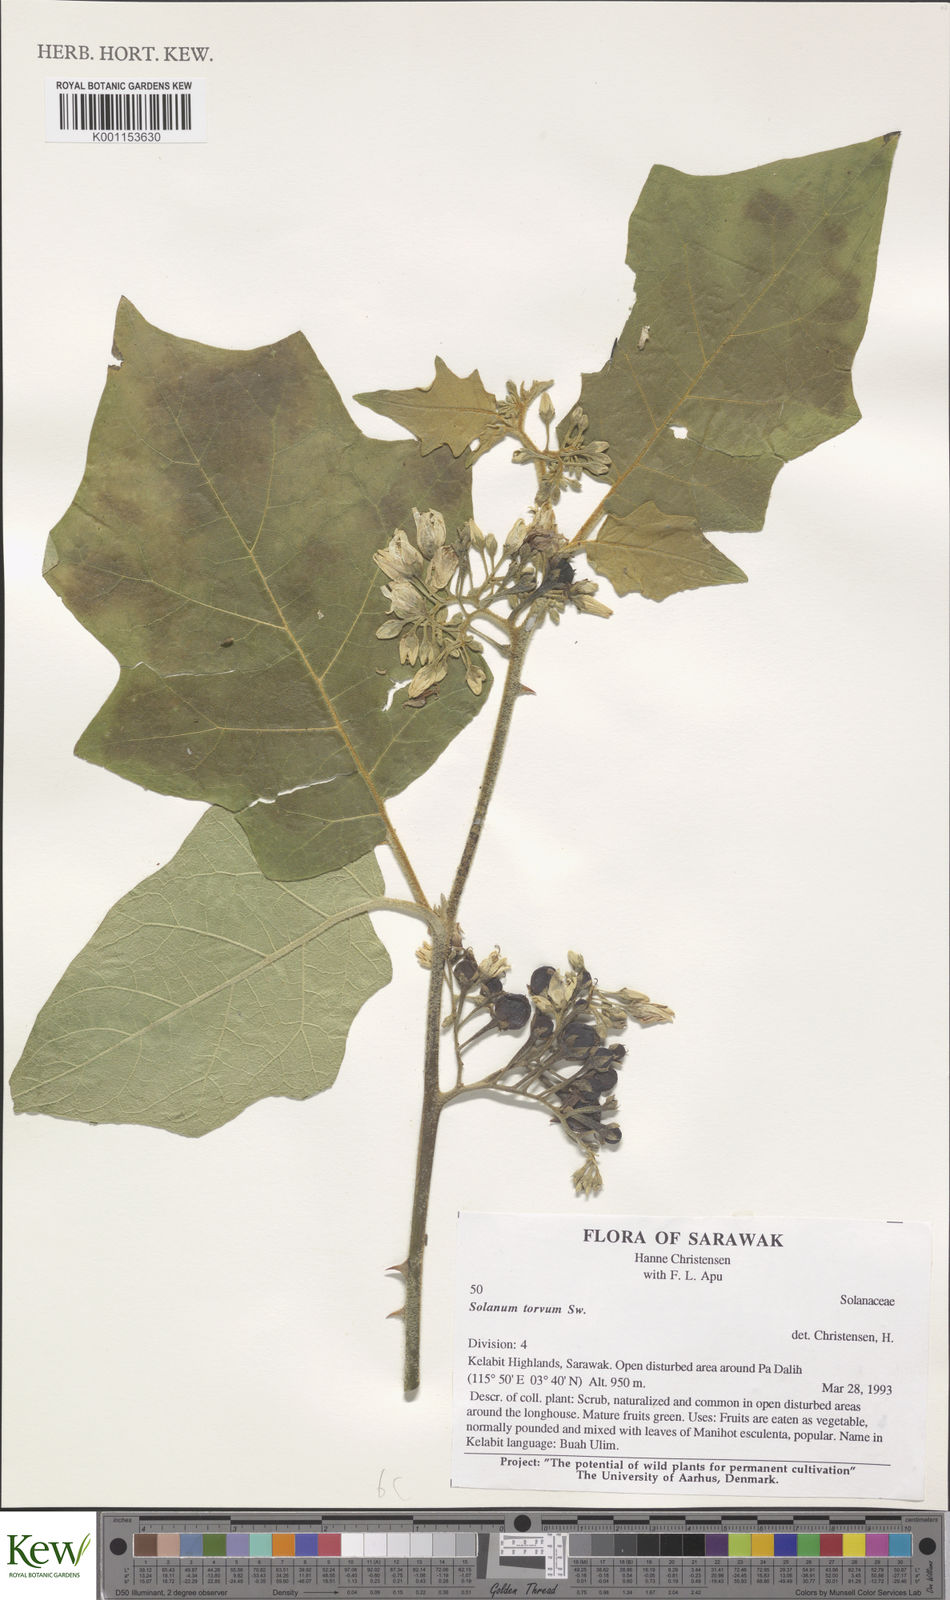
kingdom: Plantae
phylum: Tracheophyta
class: Magnoliopsida
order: Solanales
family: Solanaceae
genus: Solanum
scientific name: Solanum torvum
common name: Turkey berry
